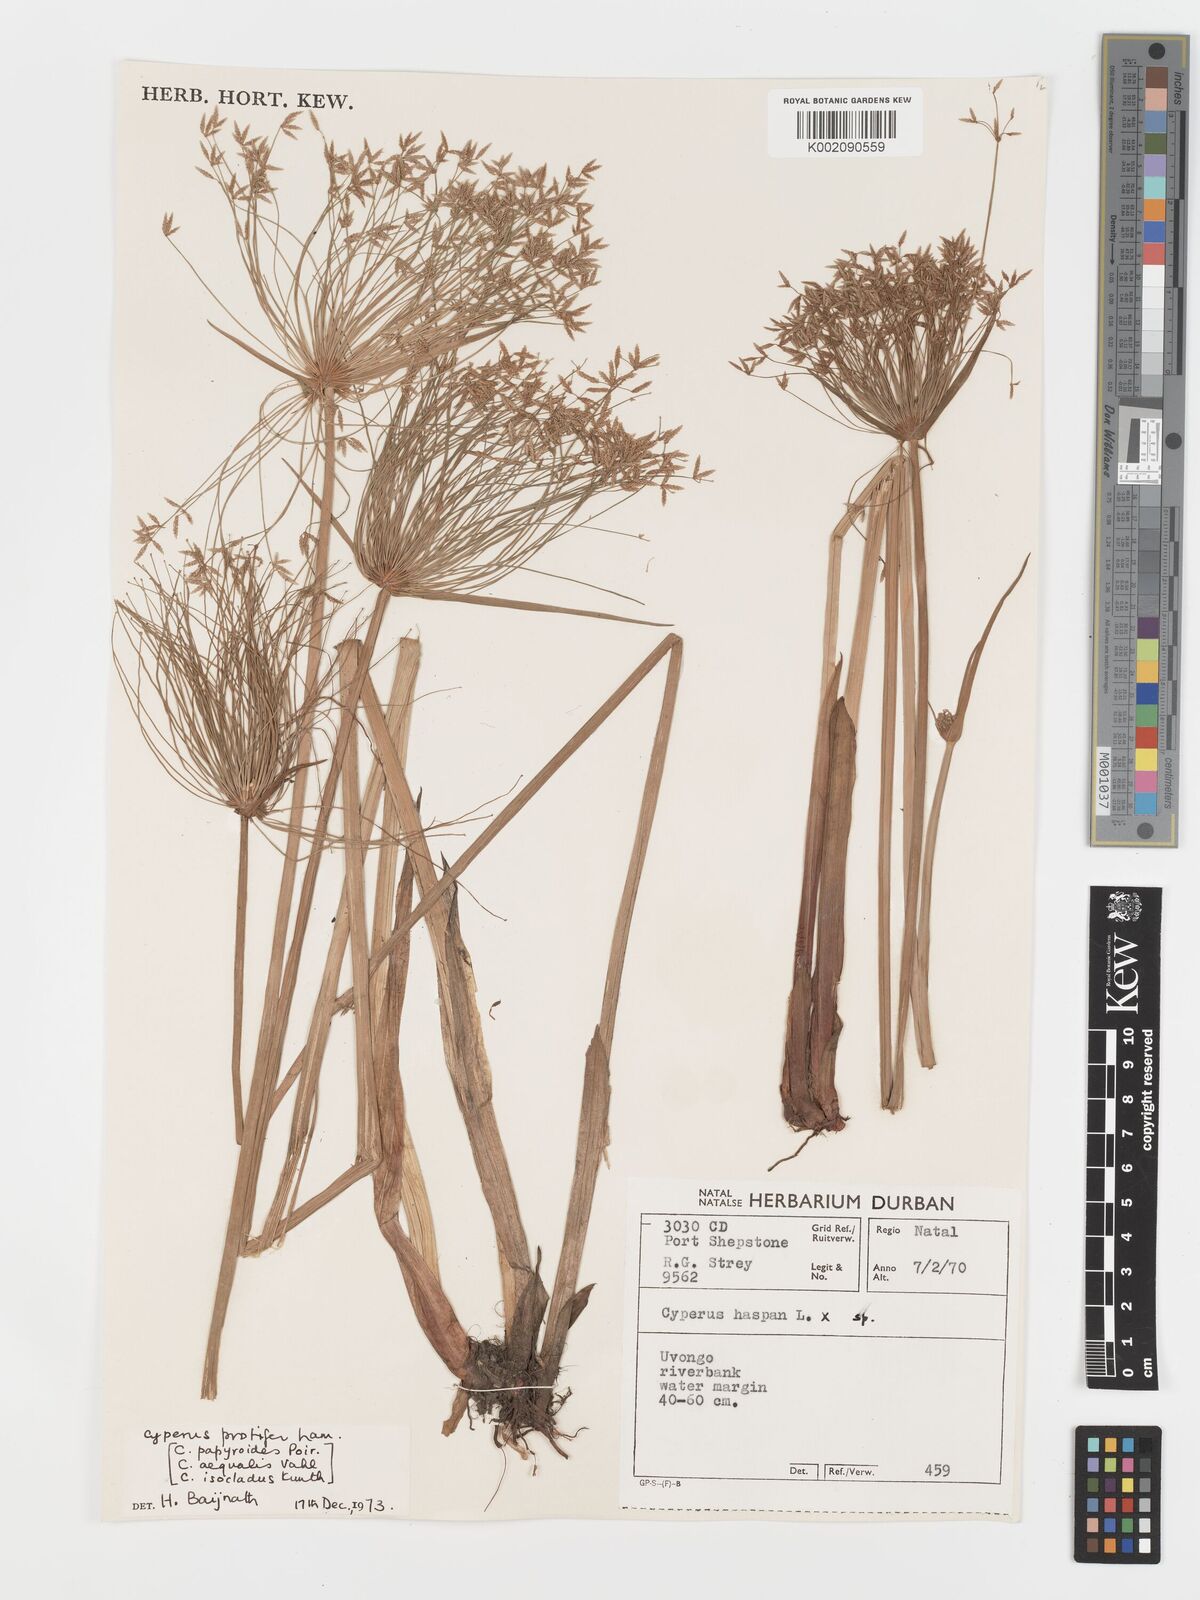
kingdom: Plantae
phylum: Tracheophyta
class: Liliopsida
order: Poales
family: Cyperaceae
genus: Cyperus
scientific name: Cyperus prolifer
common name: Miniature flatsedge
